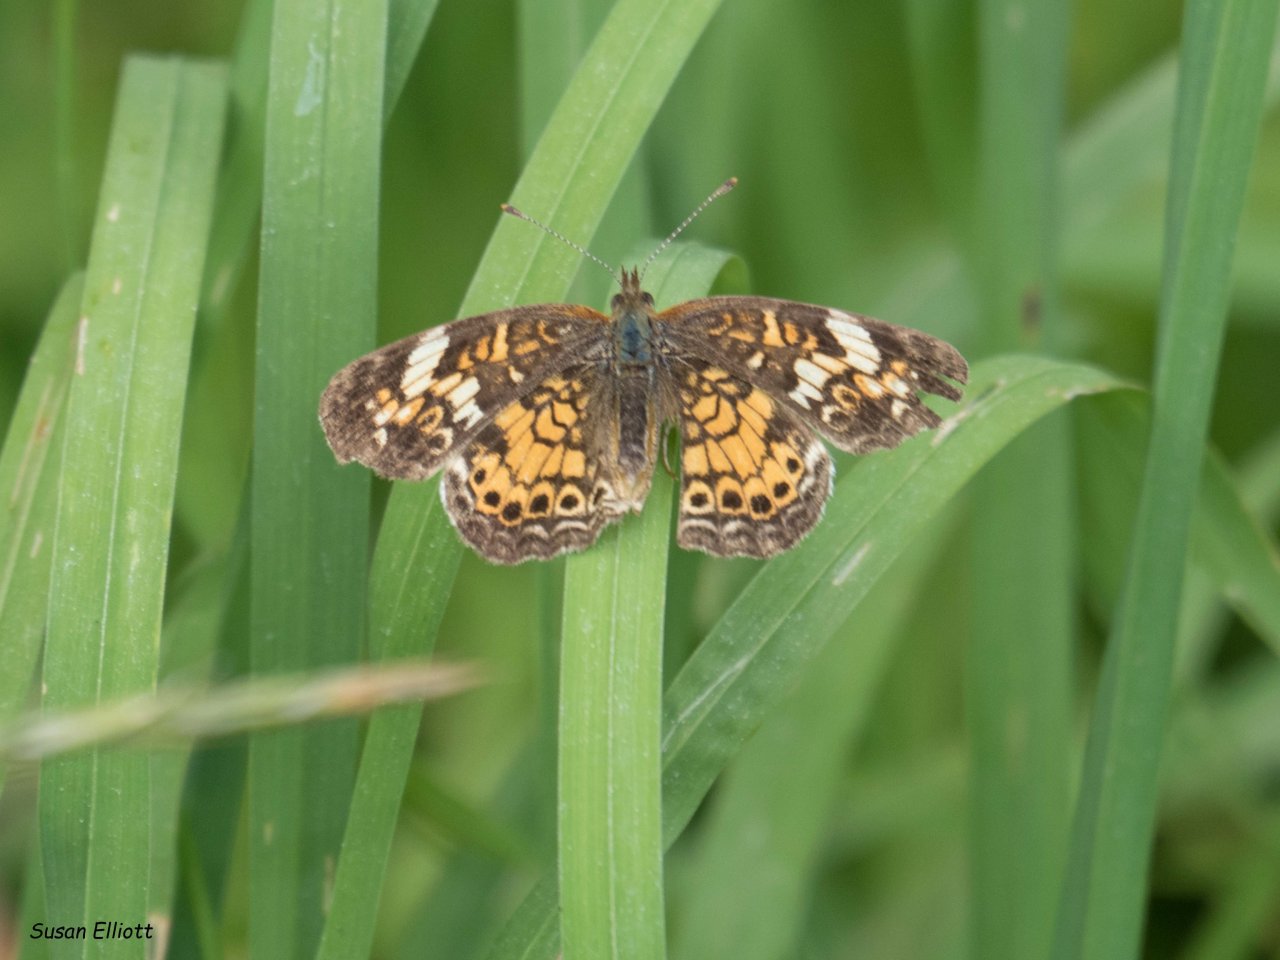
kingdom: Animalia
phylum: Arthropoda
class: Insecta
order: Lepidoptera
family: Nymphalidae
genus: Phyciodes
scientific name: Phyciodes
